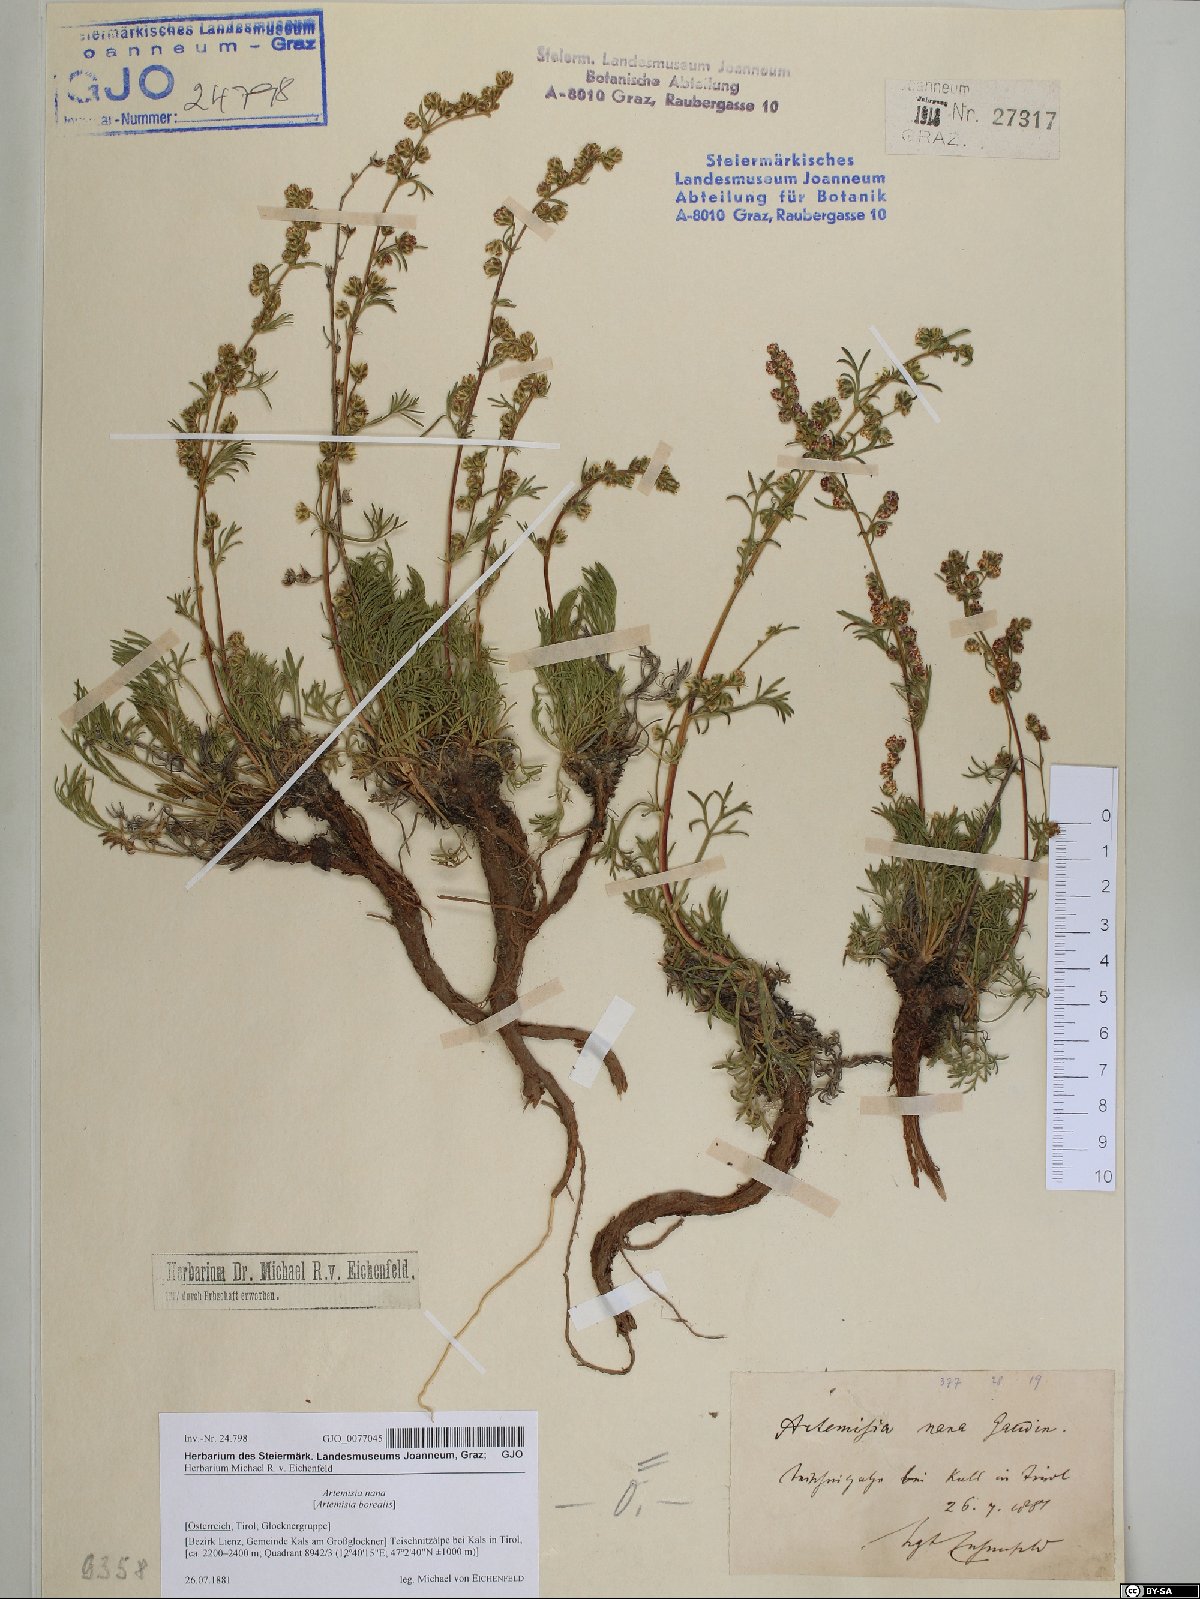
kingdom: Plantae
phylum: Tracheophyta
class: Magnoliopsida
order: Asterales
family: Asteraceae
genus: Artemisia
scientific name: Artemisia borealis
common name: Boreal sage
